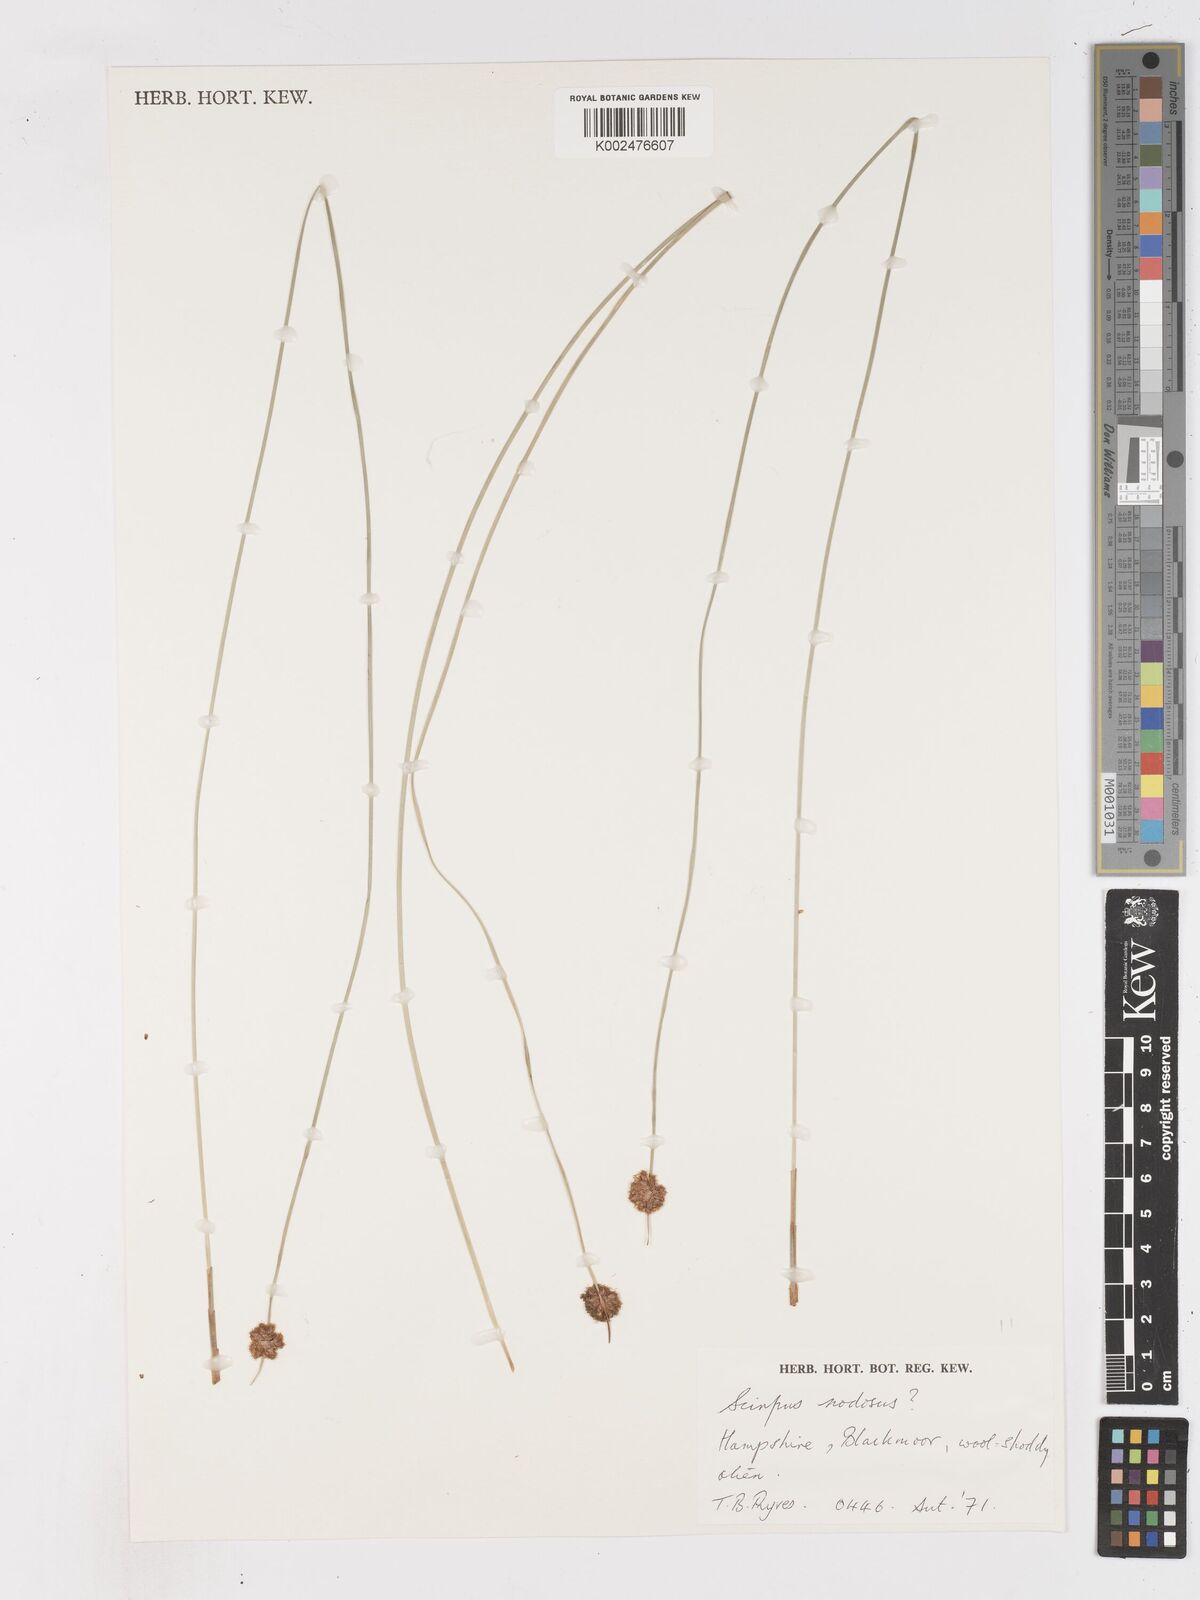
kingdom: Plantae
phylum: Tracheophyta
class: Liliopsida
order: Poales
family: Cyperaceae
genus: Ficinia
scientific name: Ficinia nodosa
